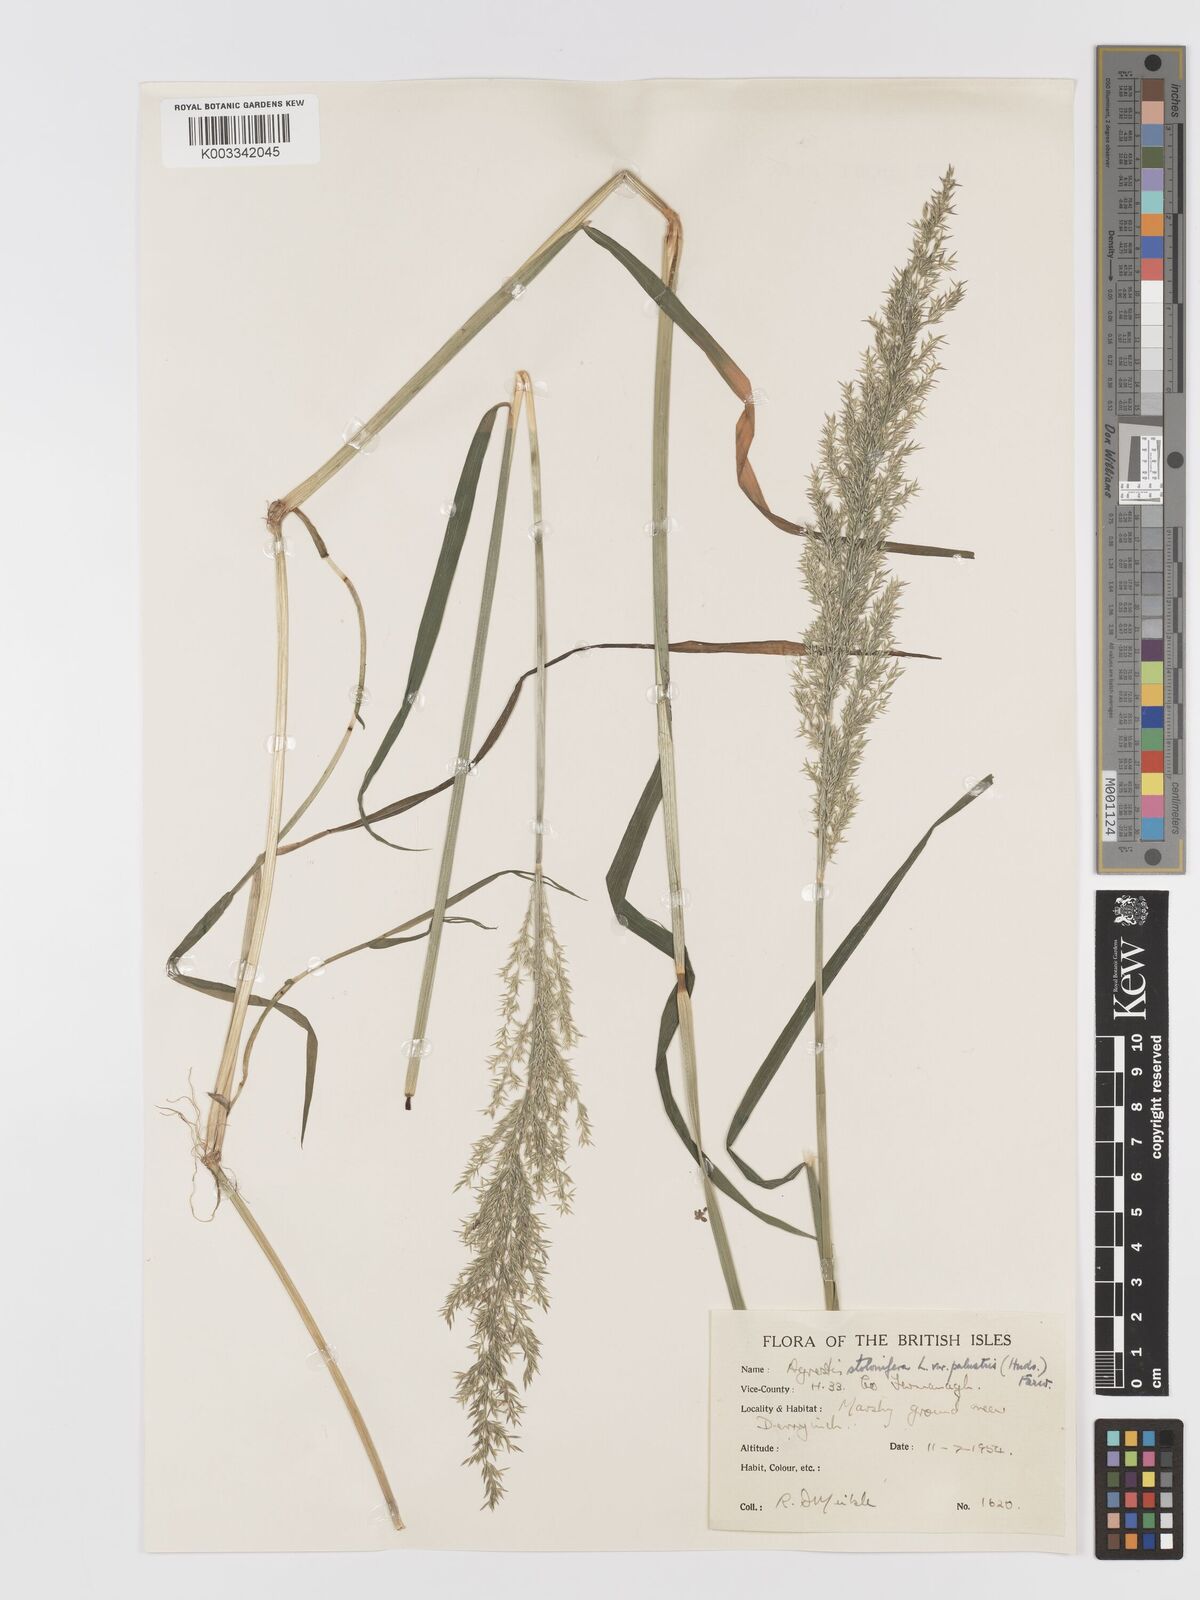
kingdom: Plantae
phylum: Tracheophyta
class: Liliopsida
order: Poales
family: Poaceae
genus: Agrostis
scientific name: Agrostis stolonifera
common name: Creeping bentgrass
